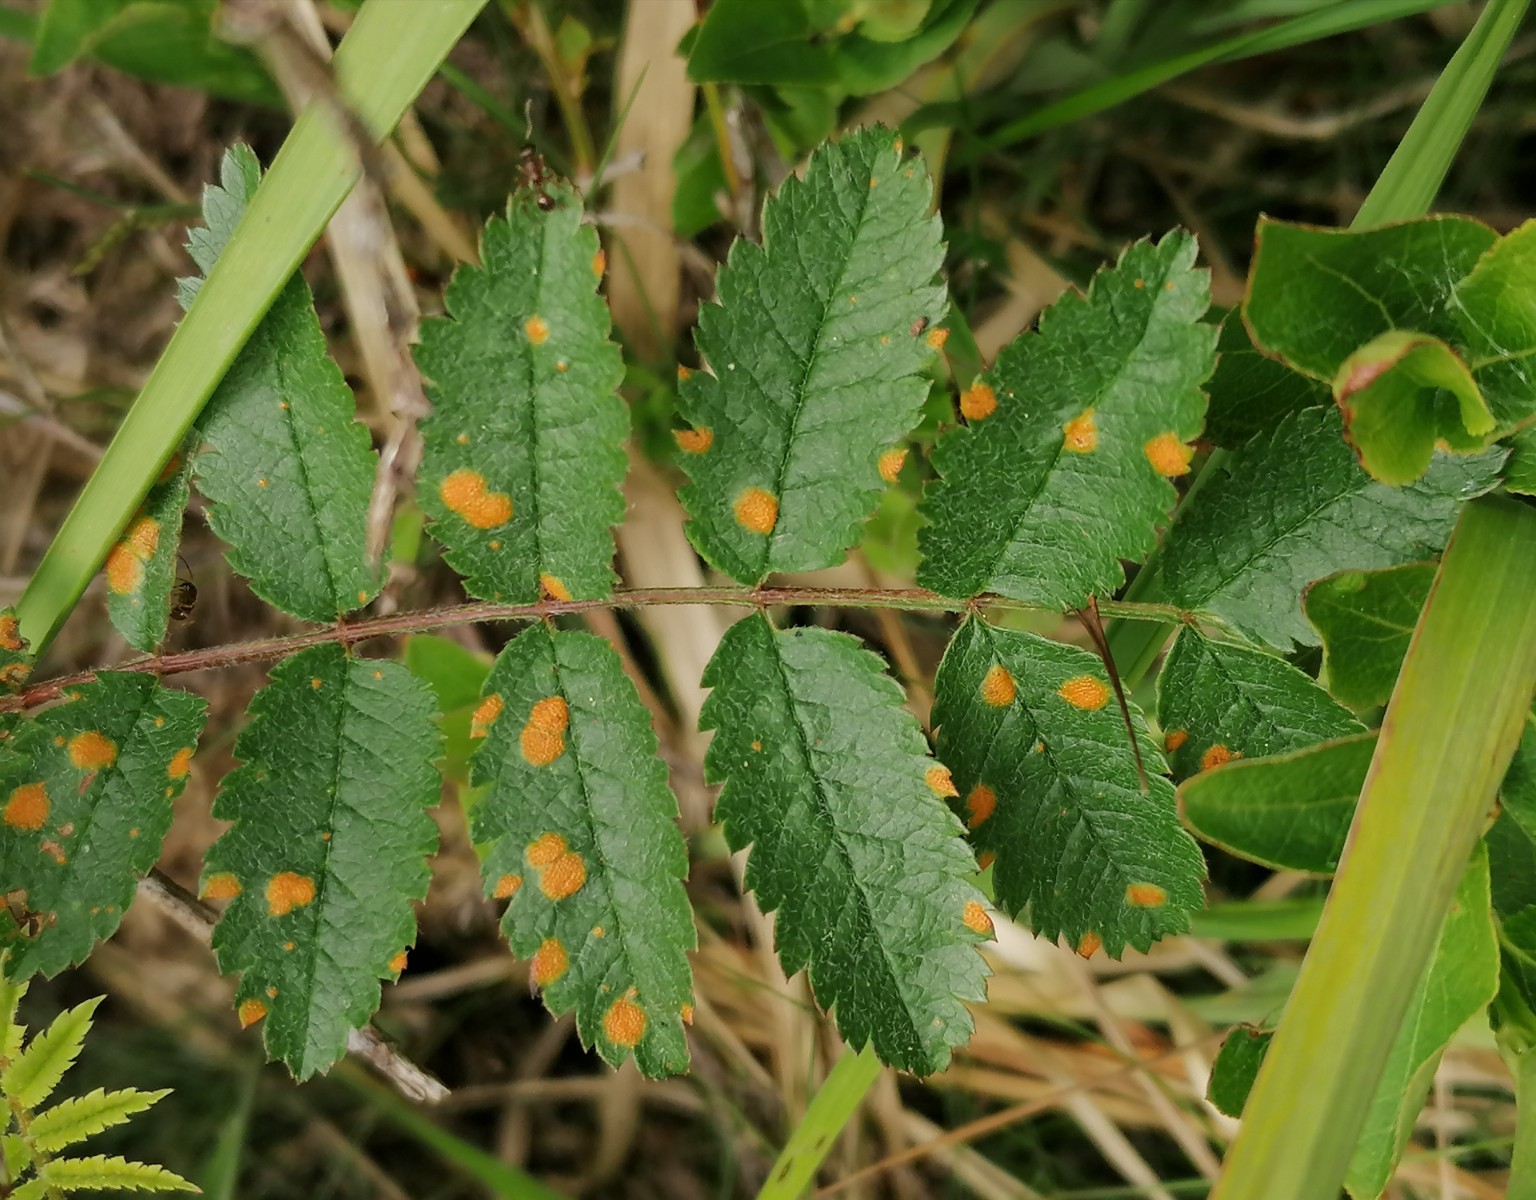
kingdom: Fungi
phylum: Basidiomycota
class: Pucciniomycetes
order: Pucciniales
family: Pucciniaceae
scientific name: Pucciniaceae
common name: rustsvampfamilien
